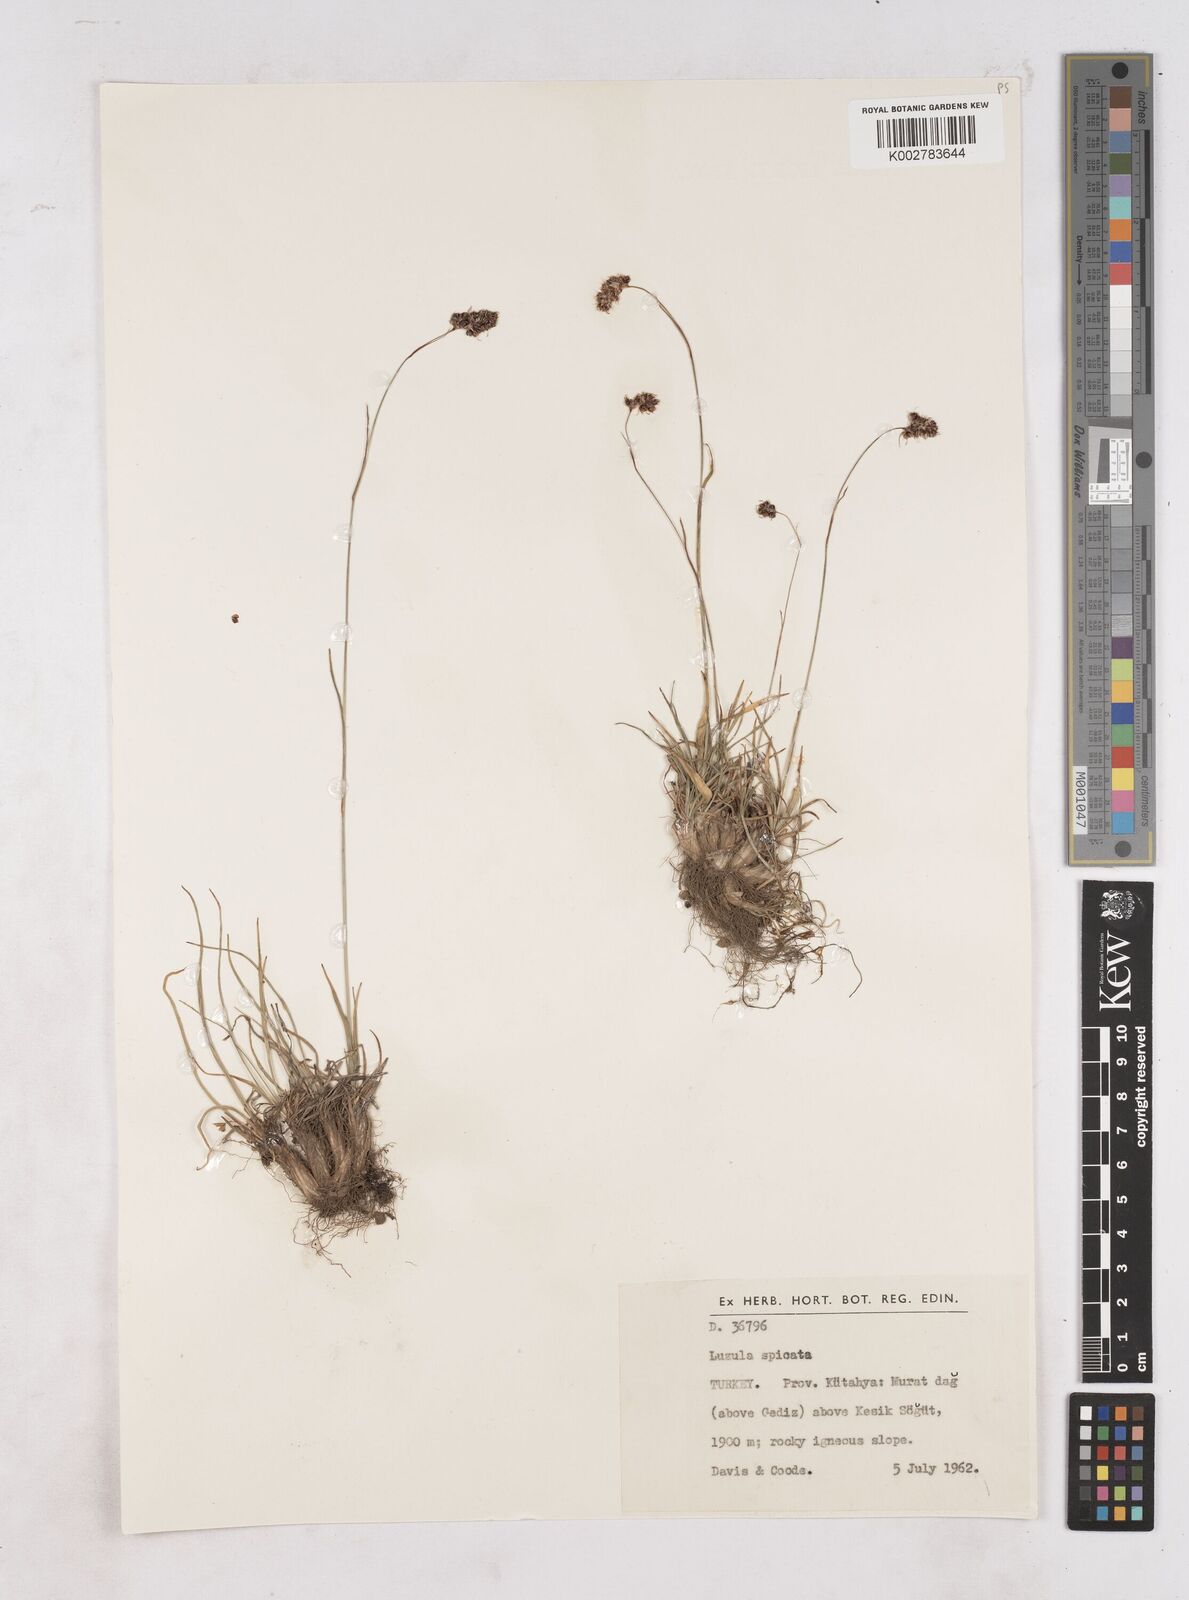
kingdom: Plantae
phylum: Tracheophyta
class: Liliopsida
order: Poales
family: Juncaceae
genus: Luzula
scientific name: Luzula spicata
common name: Spiked wood-rush
